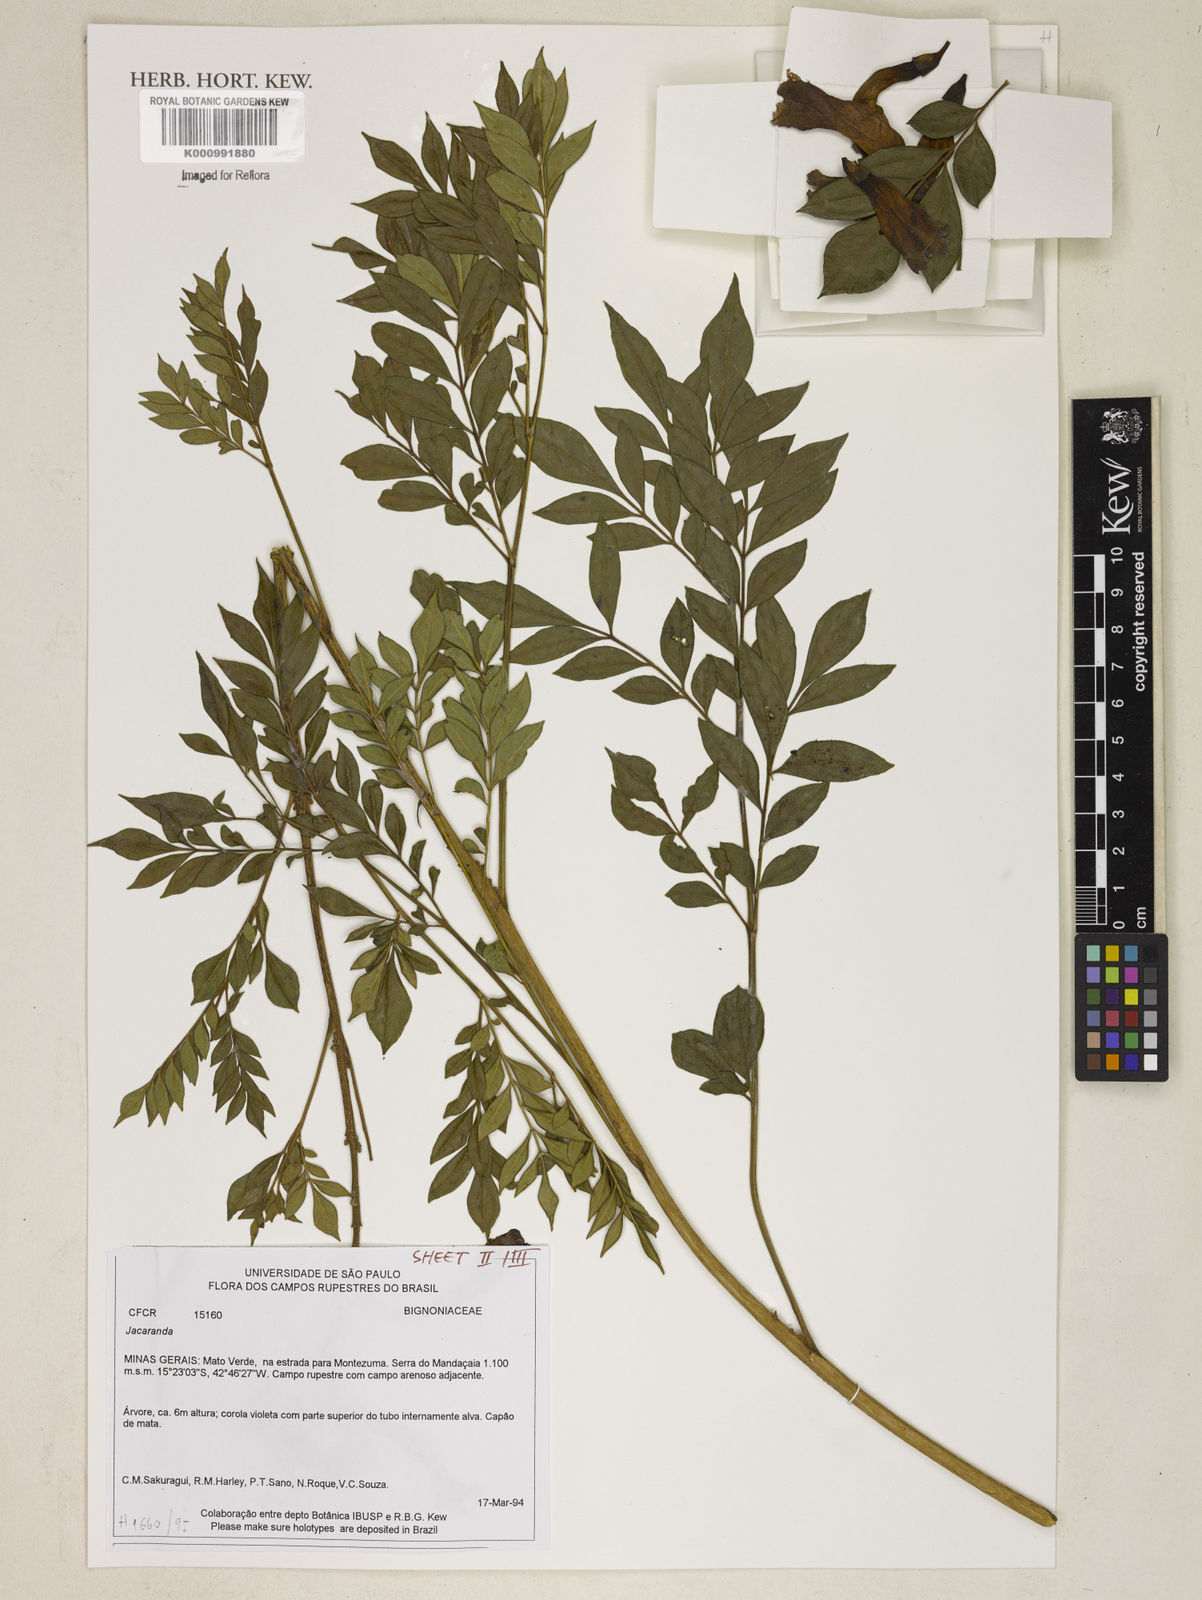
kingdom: Plantae
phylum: Tracheophyta
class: Magnoliopsida
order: Lamiales
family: Bignoniaceae
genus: Jacaranda
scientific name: Jacaranda
